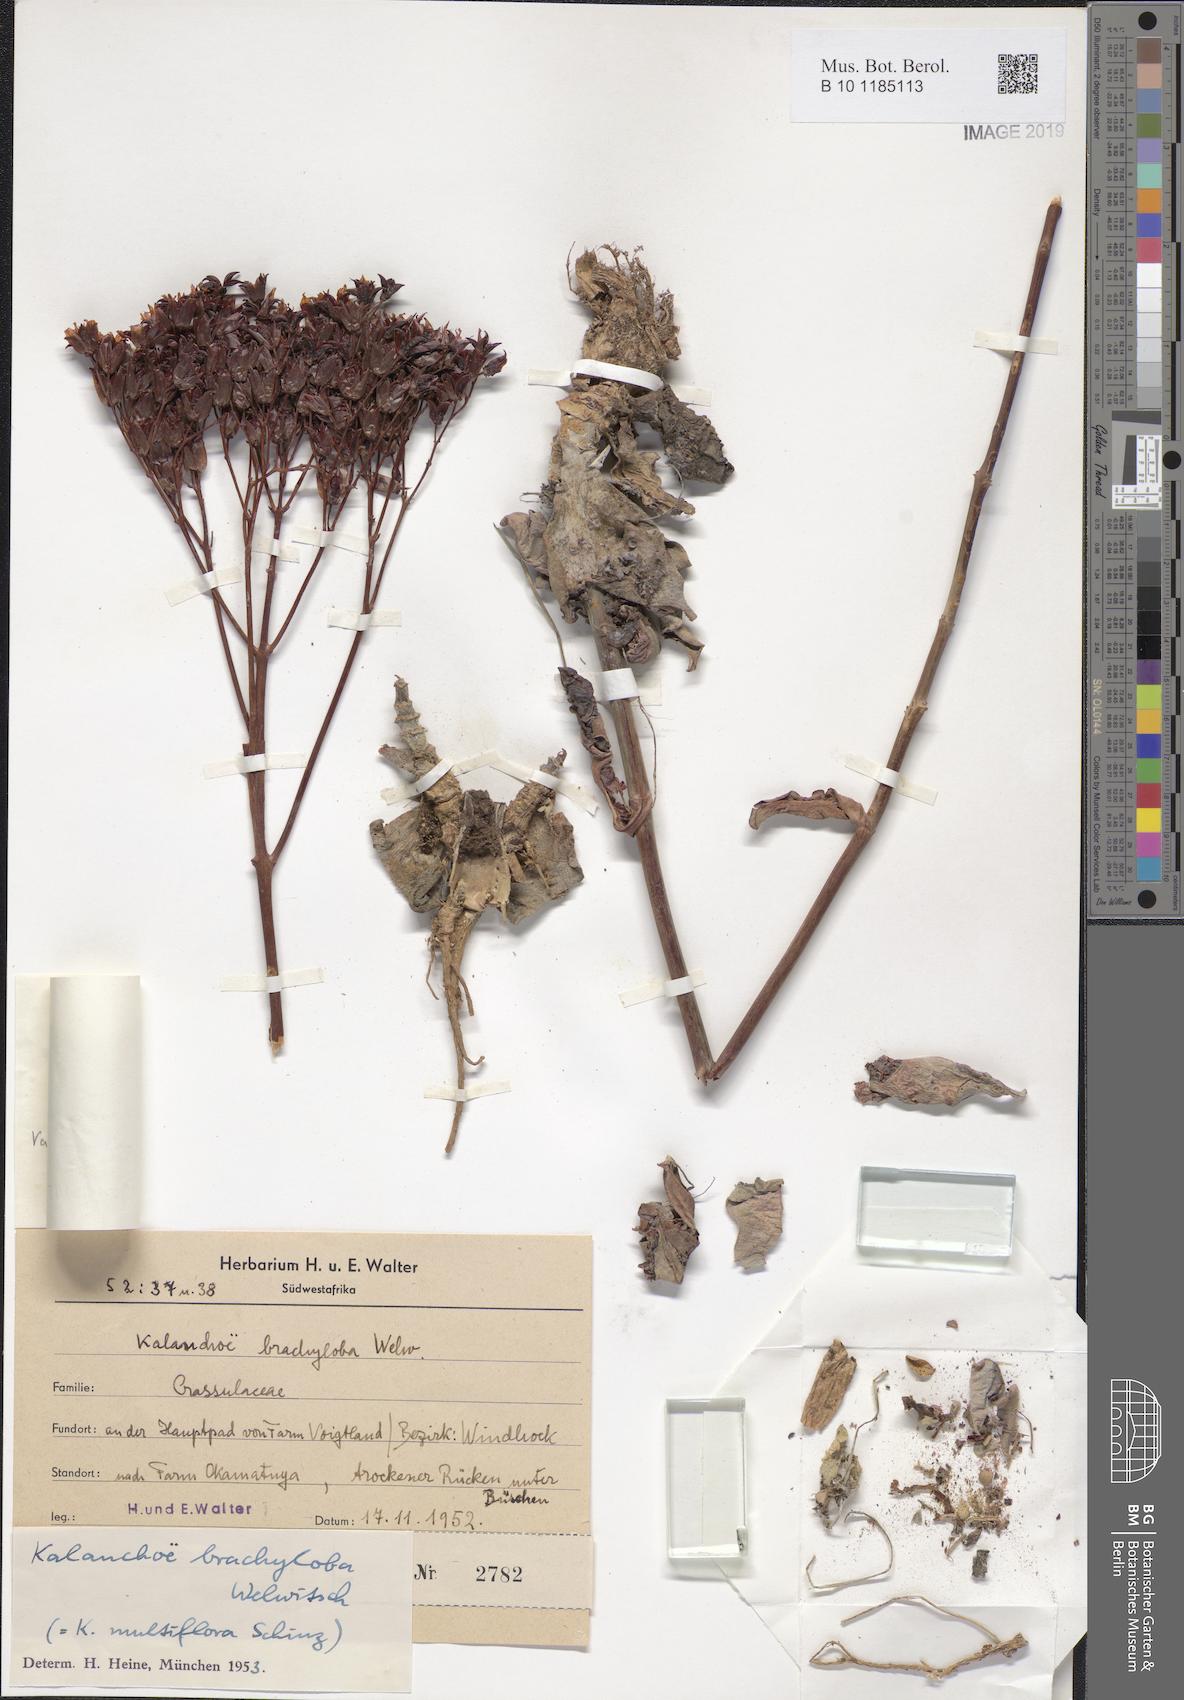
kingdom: Plantae
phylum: Tracheophyta
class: Magnoliopsida
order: Saxifragales
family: Crassulaceae
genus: Kalanchoe
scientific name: Kalanchoe brachyloba
